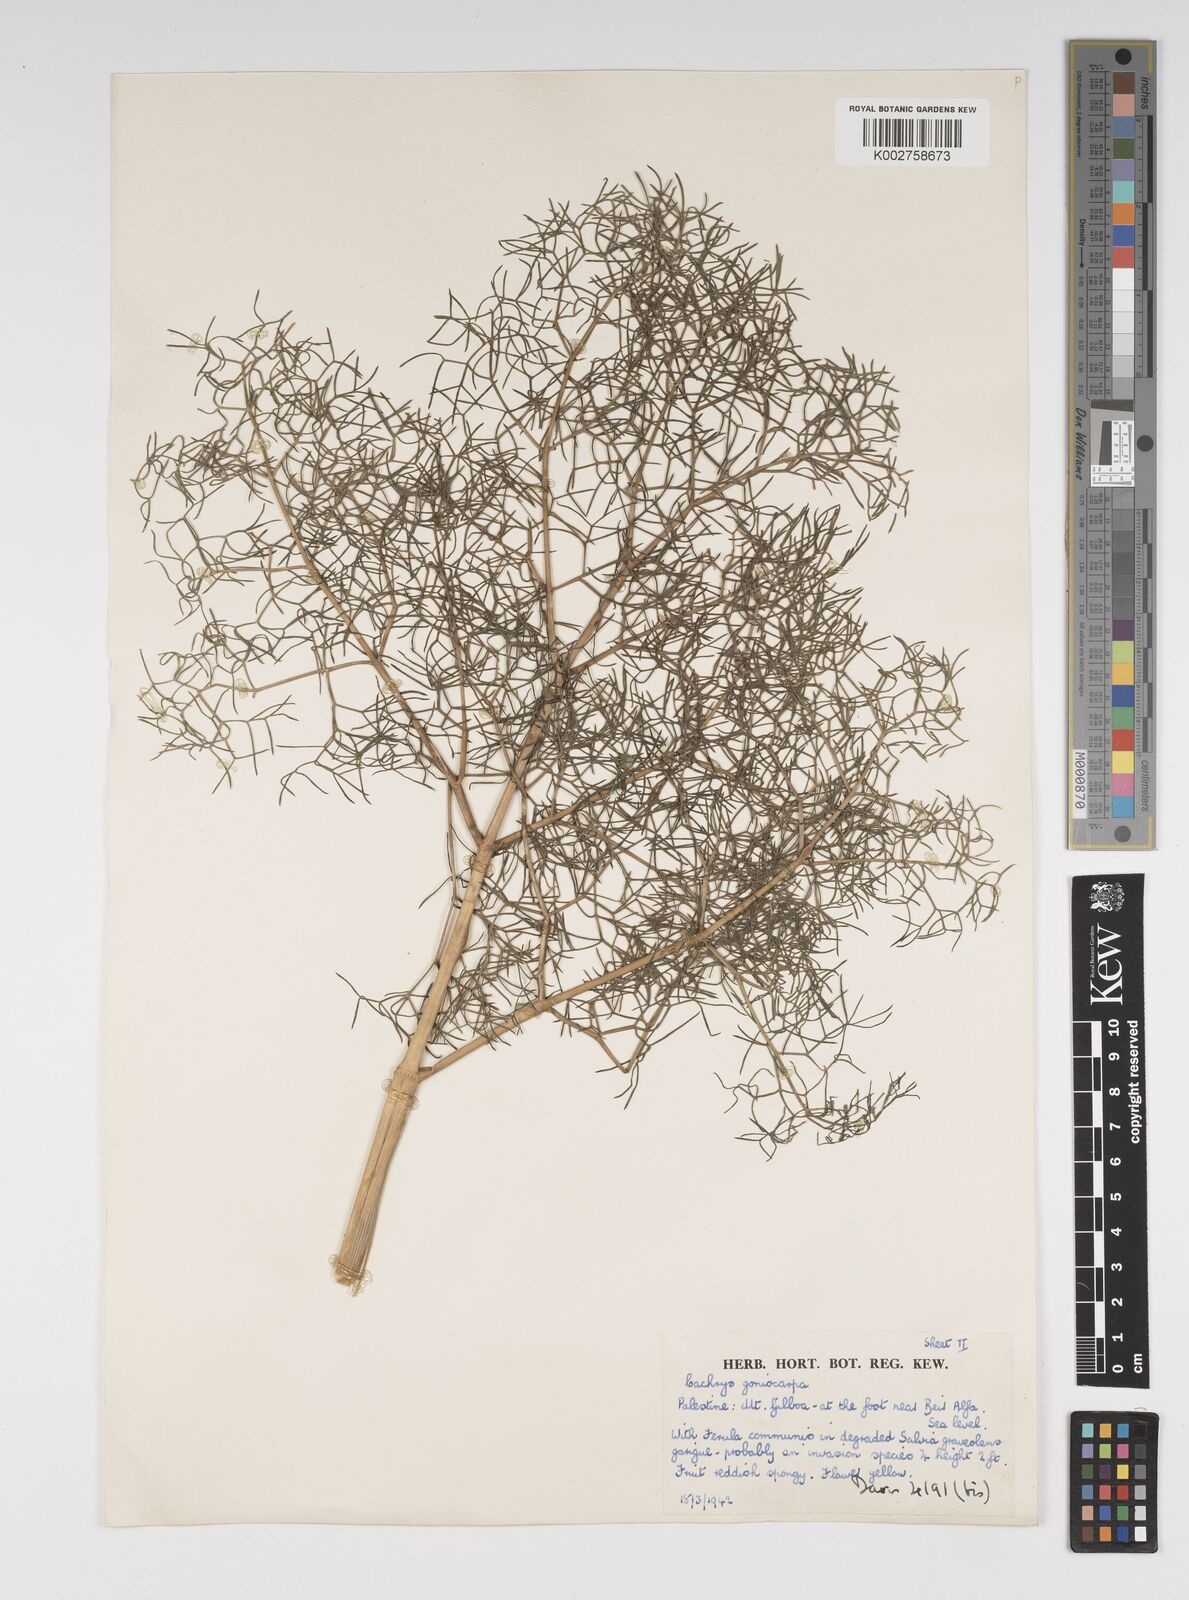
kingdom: Plantae
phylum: Tracheophyta
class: Magnoliopsida
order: Apiales
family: Apiaceae
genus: Prangos
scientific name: Prangos ferulacea
